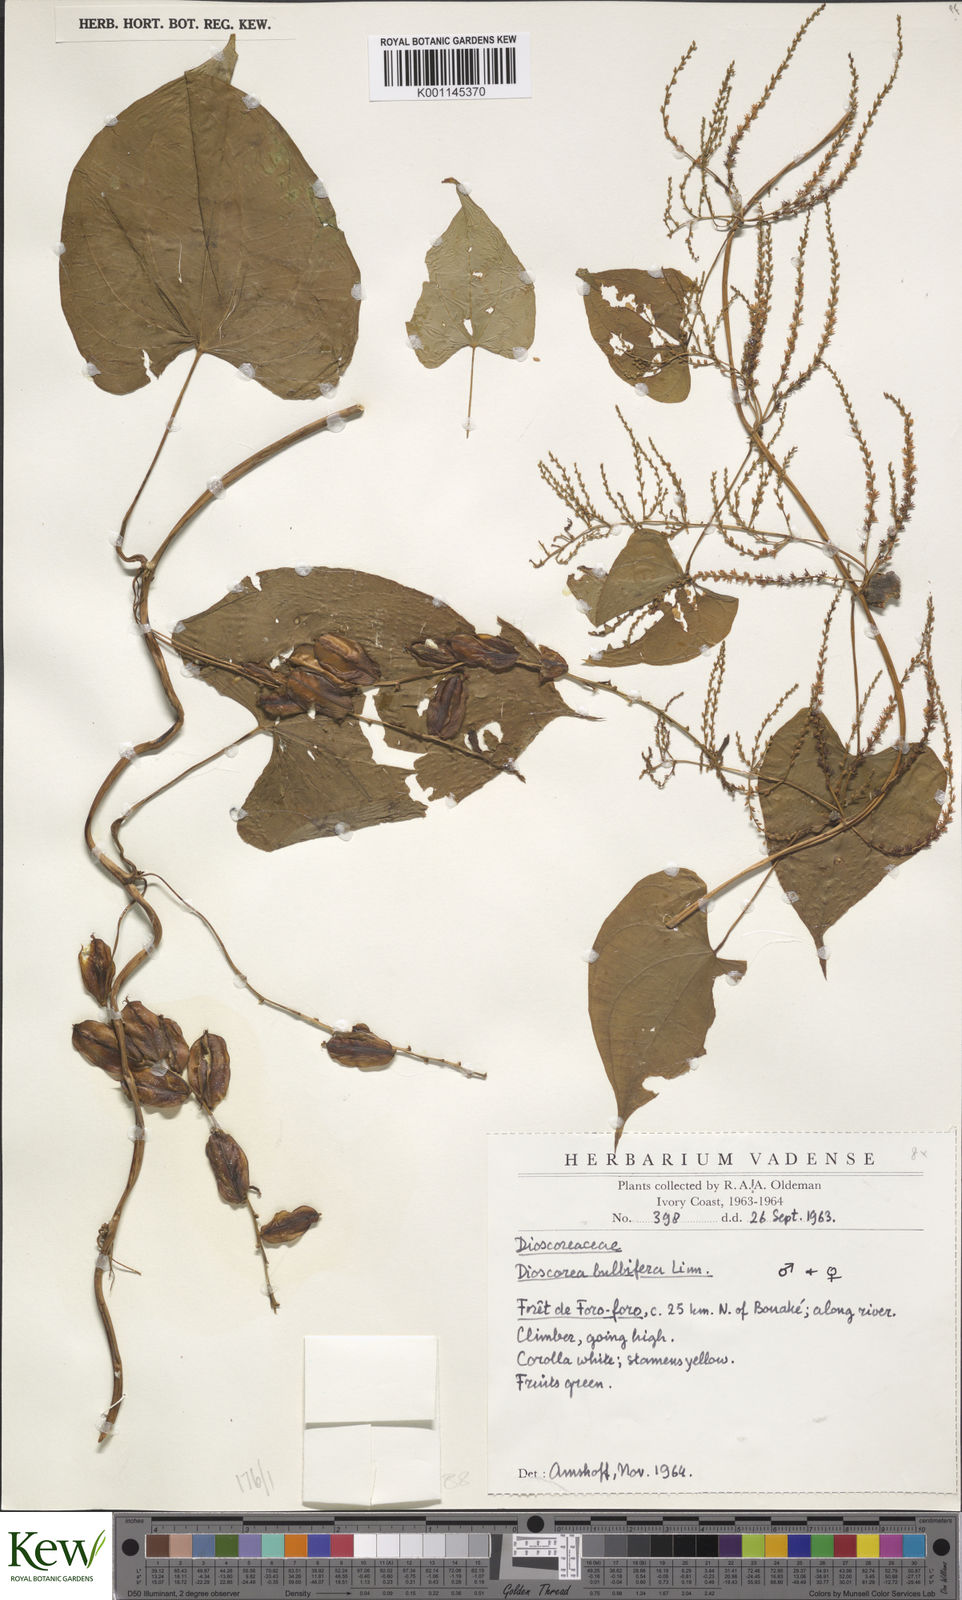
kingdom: Plantae
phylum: Tracheophyta
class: Liliopsida
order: Dioscoreales
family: Dioscoreaceae
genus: Dioscorea
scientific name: Dioscorea bulbifera
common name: Air yam
